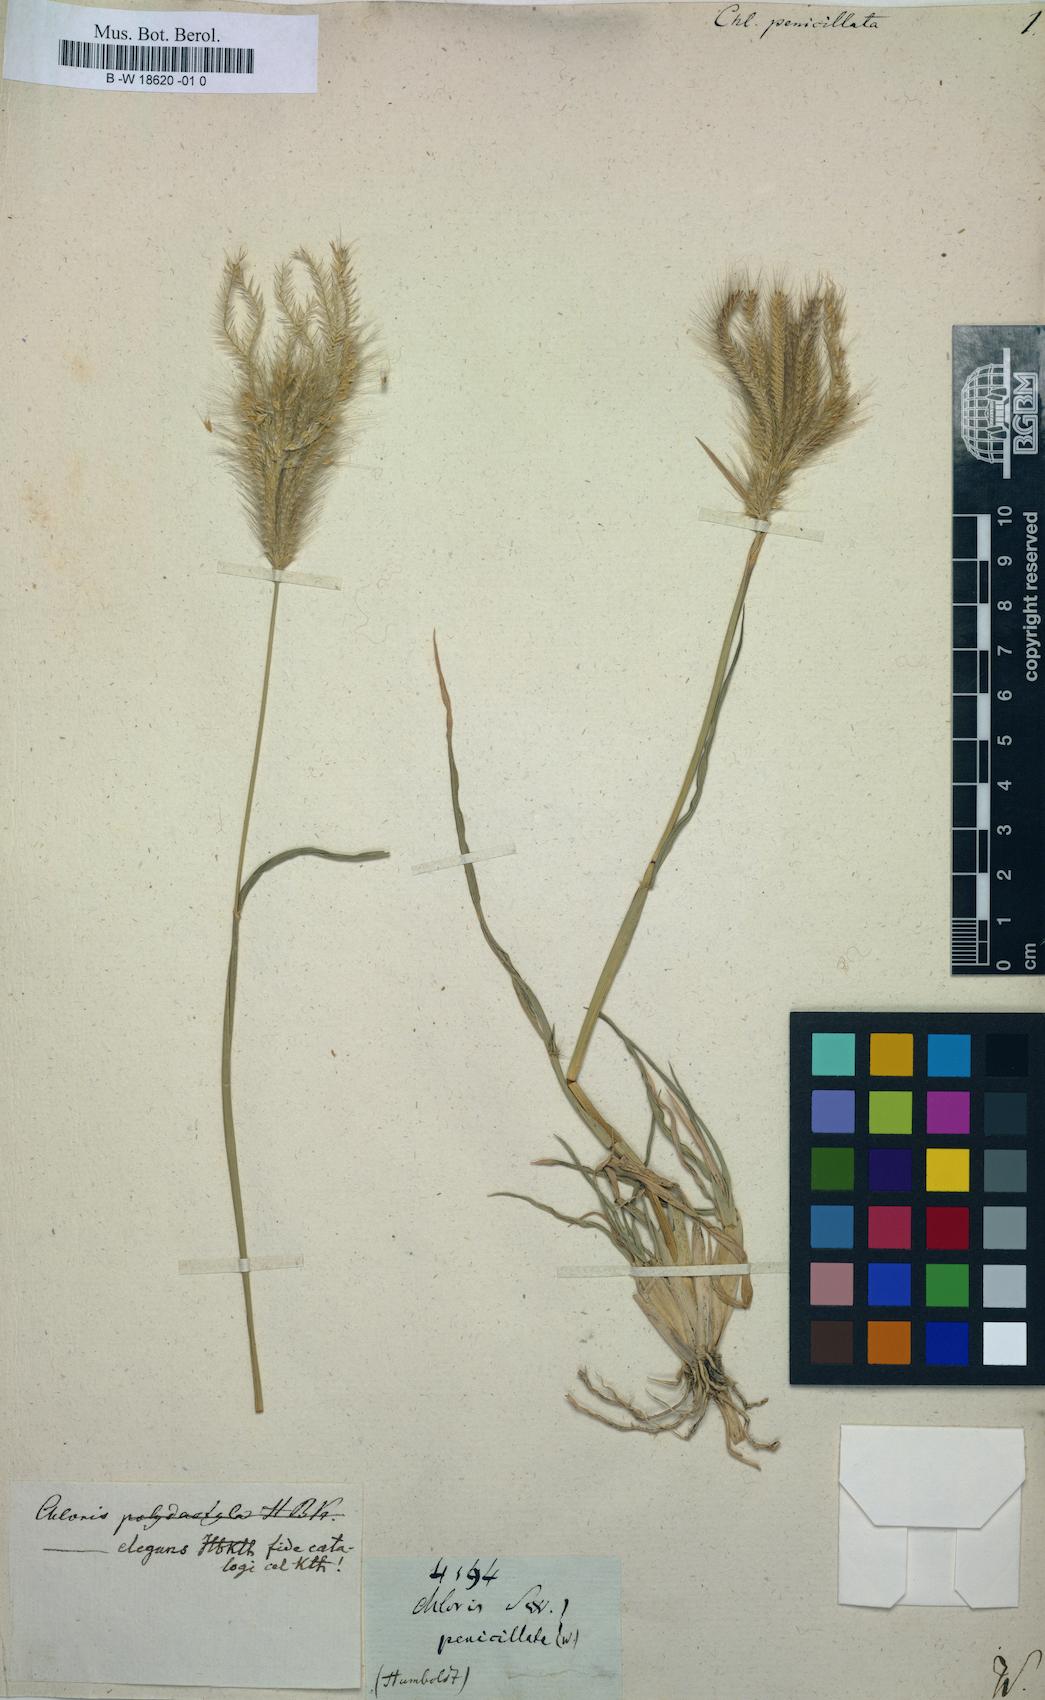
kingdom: Plantae
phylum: Tracheophyta
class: Liliopsida
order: Poales
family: Poaceae
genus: Chloris
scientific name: Chloris virgata
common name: Feathery rhodes-grass
